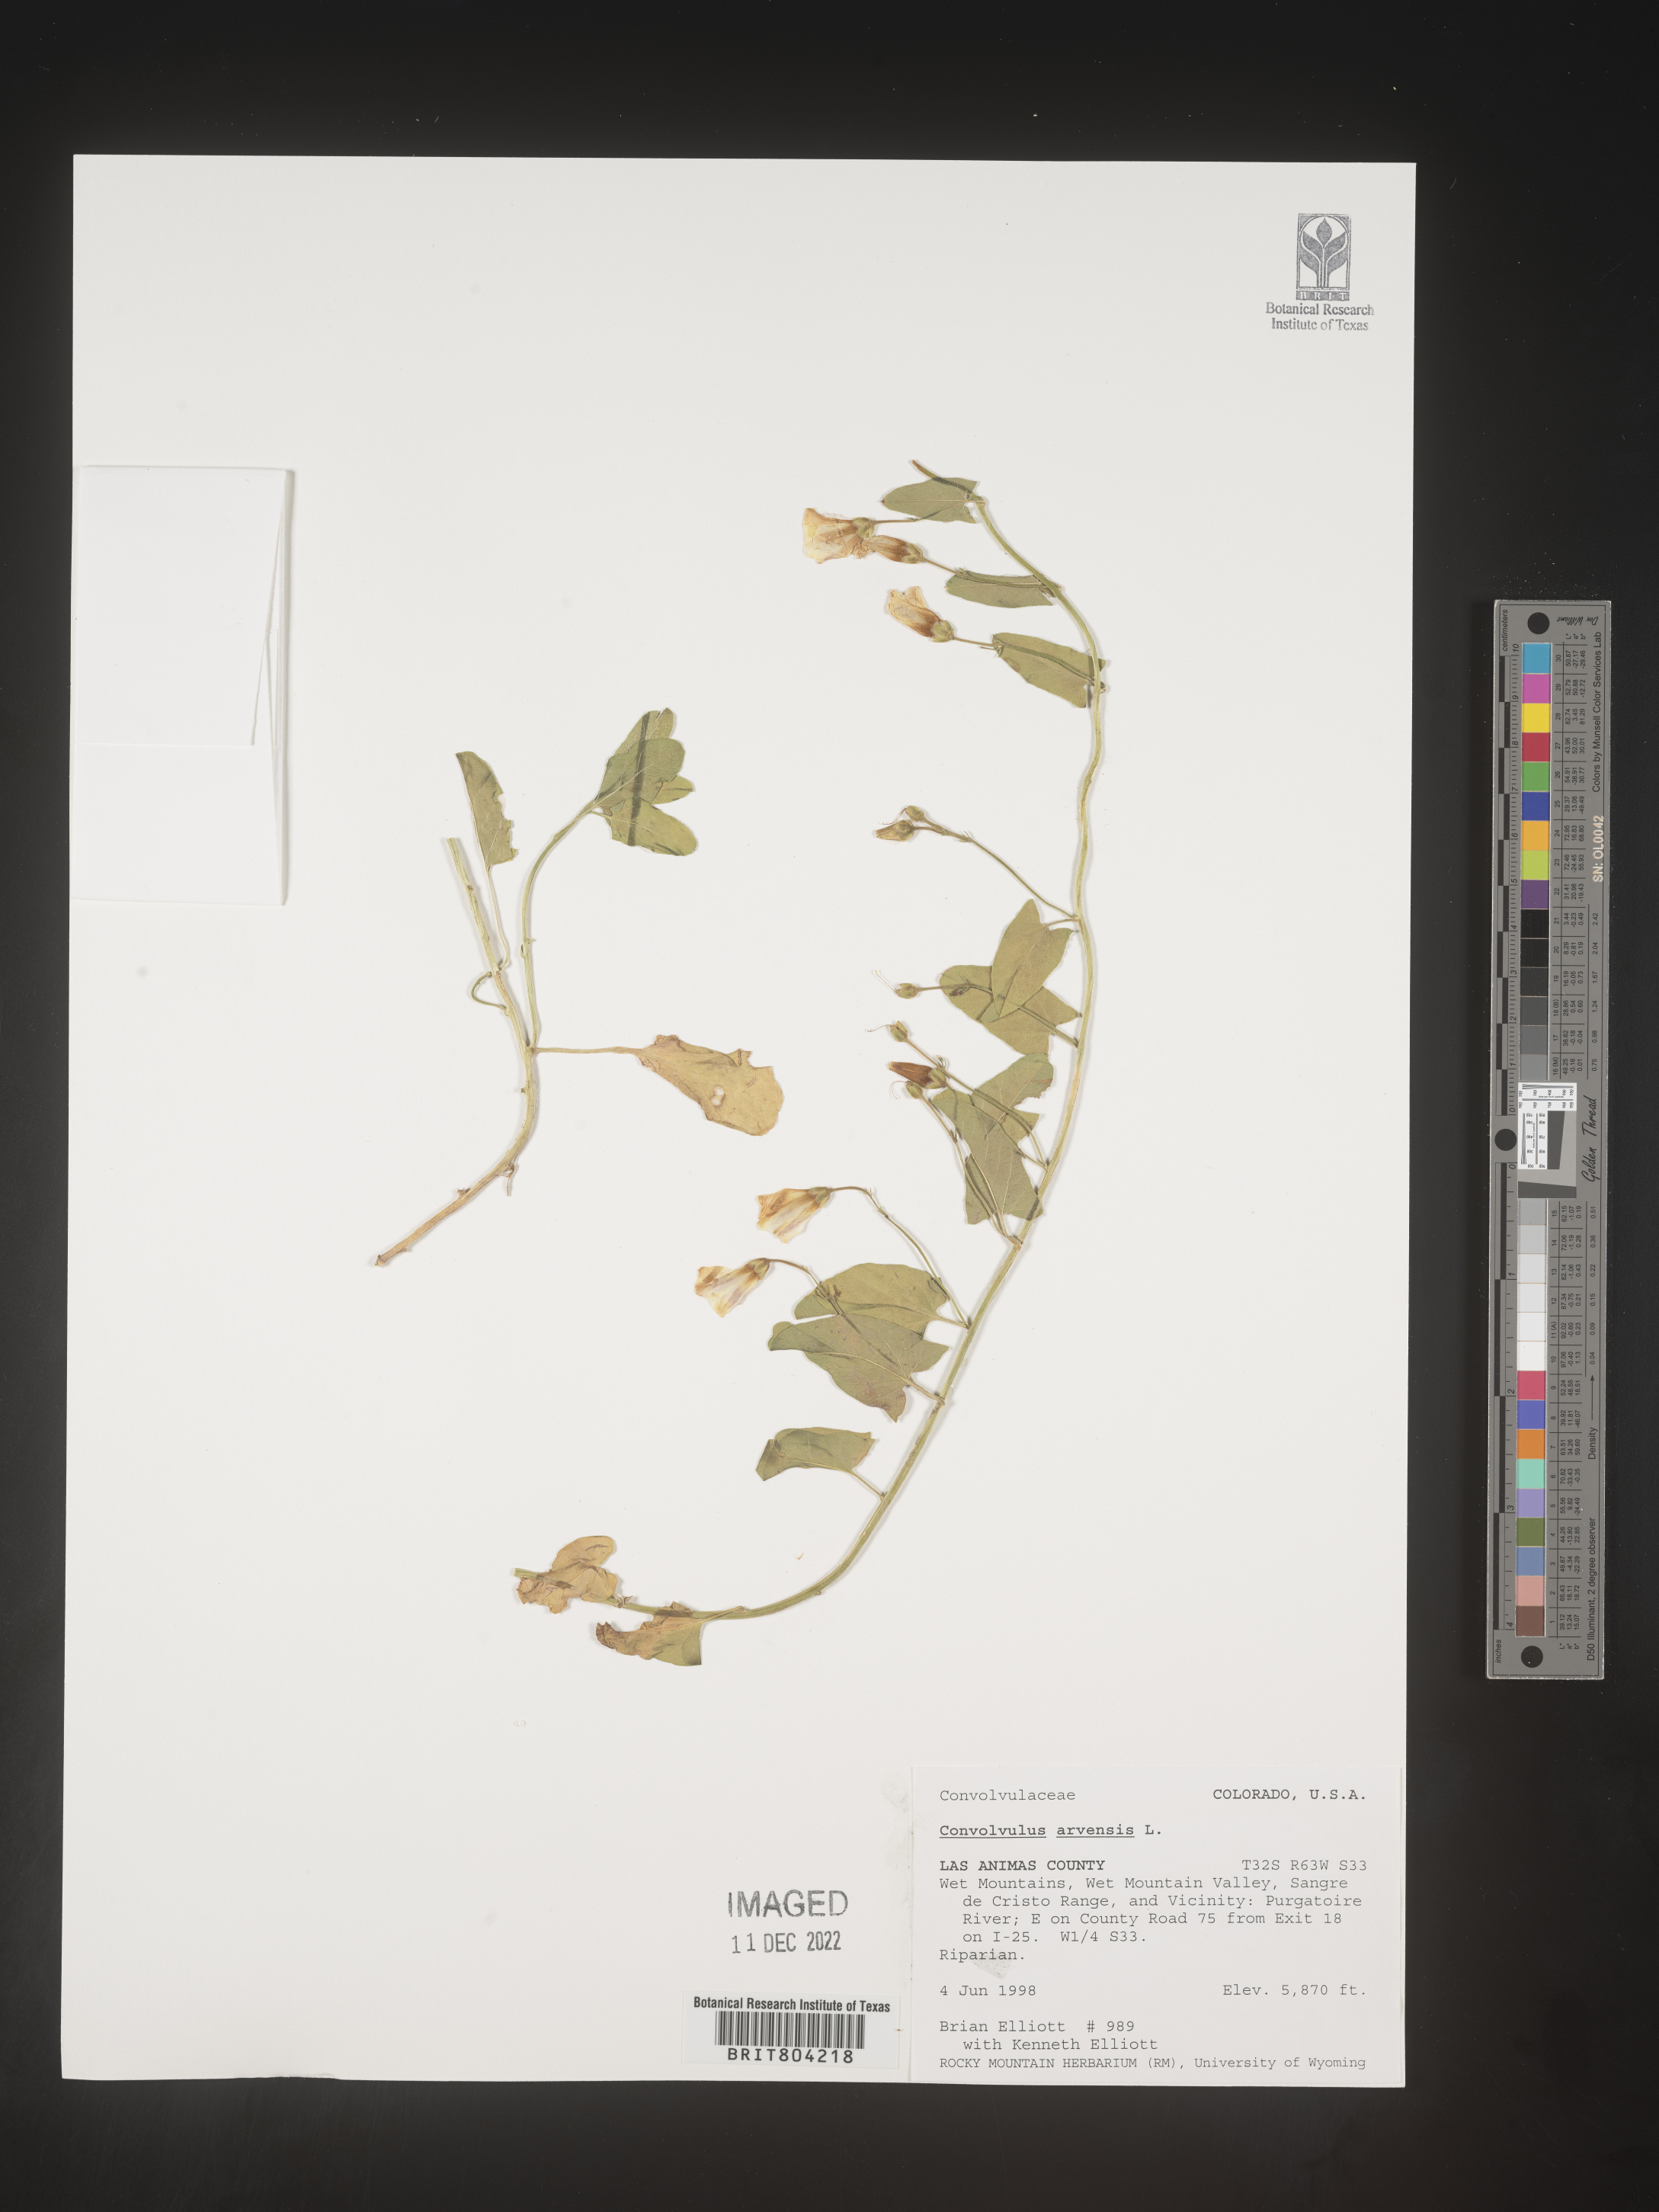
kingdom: Plantae
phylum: Tracheophyta
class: Magnoliopsida
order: Solanales
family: Convolvulaceae
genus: Convolvulus
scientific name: Convolvulus arvensis
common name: Field bindweed
